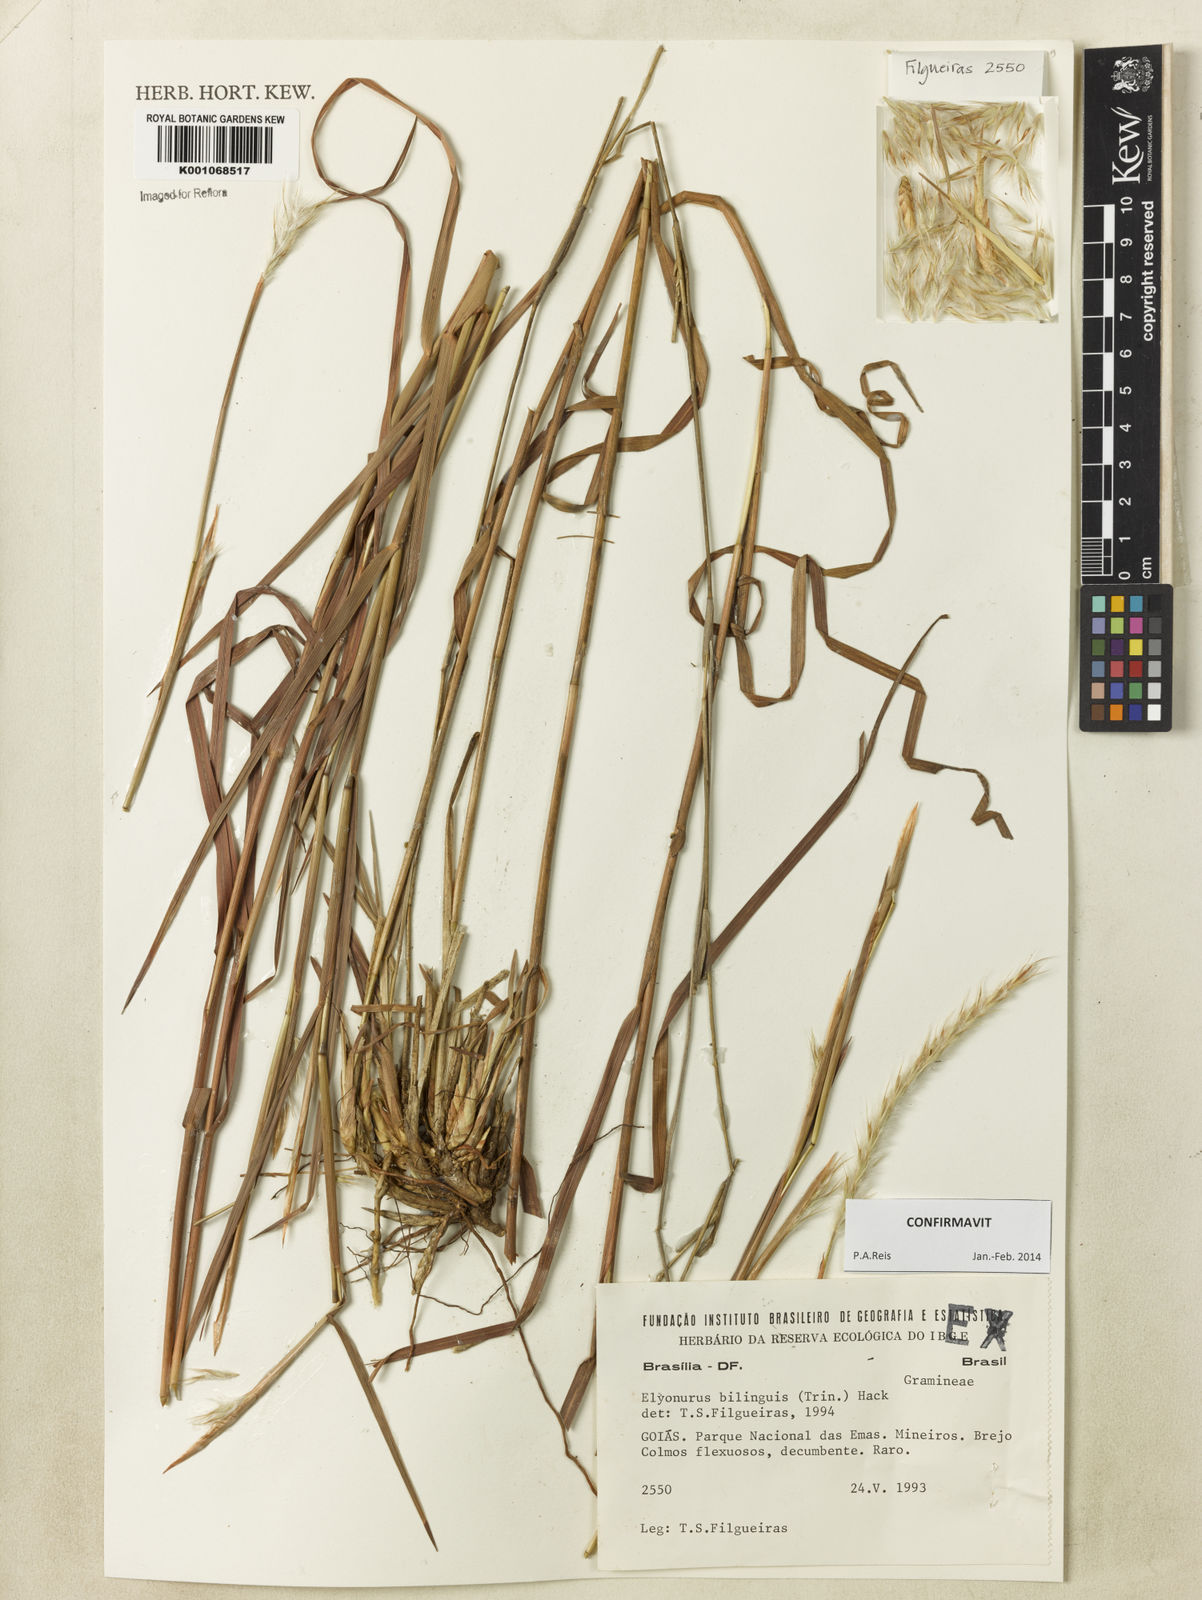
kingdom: Plantae
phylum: Tracheophyta
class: Liliopsida
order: Poales
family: Poaceae
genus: Elionurus
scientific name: Elionurus bilinguis
